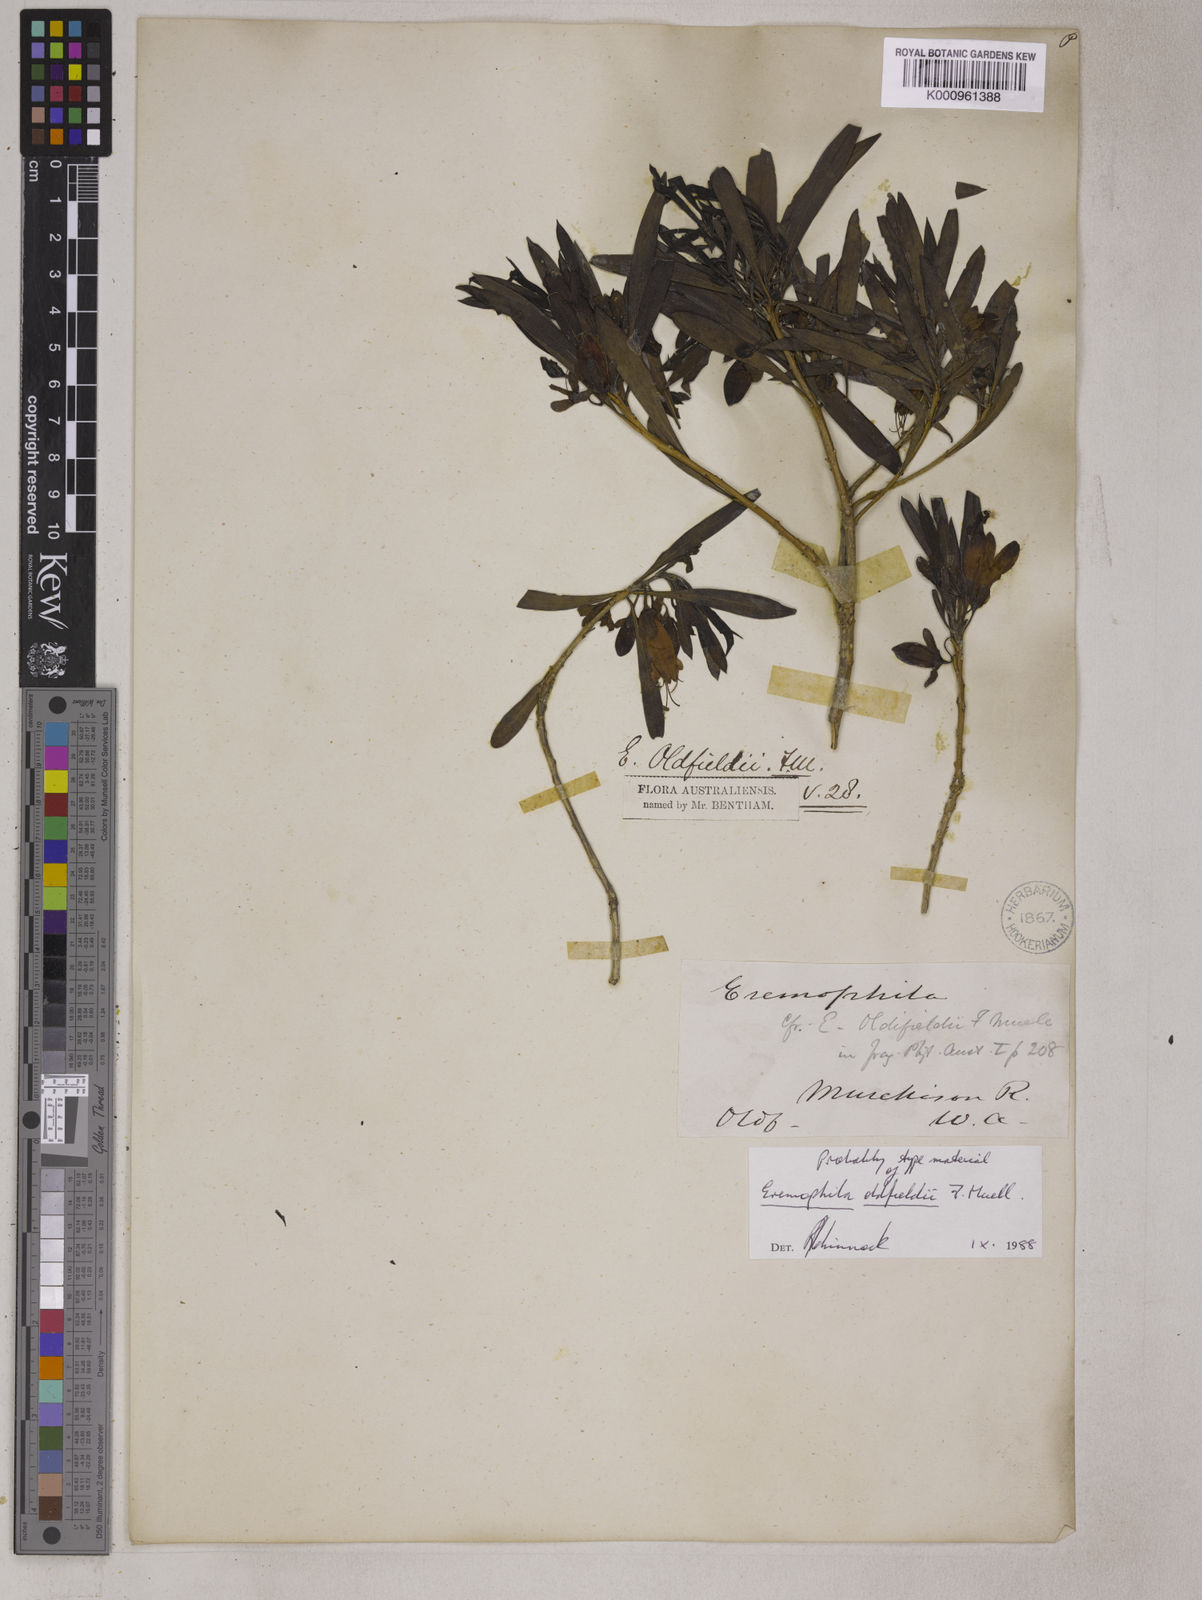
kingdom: Plantae
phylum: Tracheophyta
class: Magnoliopsida
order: Lamiales
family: Scrophulariaceae
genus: Eremophila
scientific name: Eremophila
